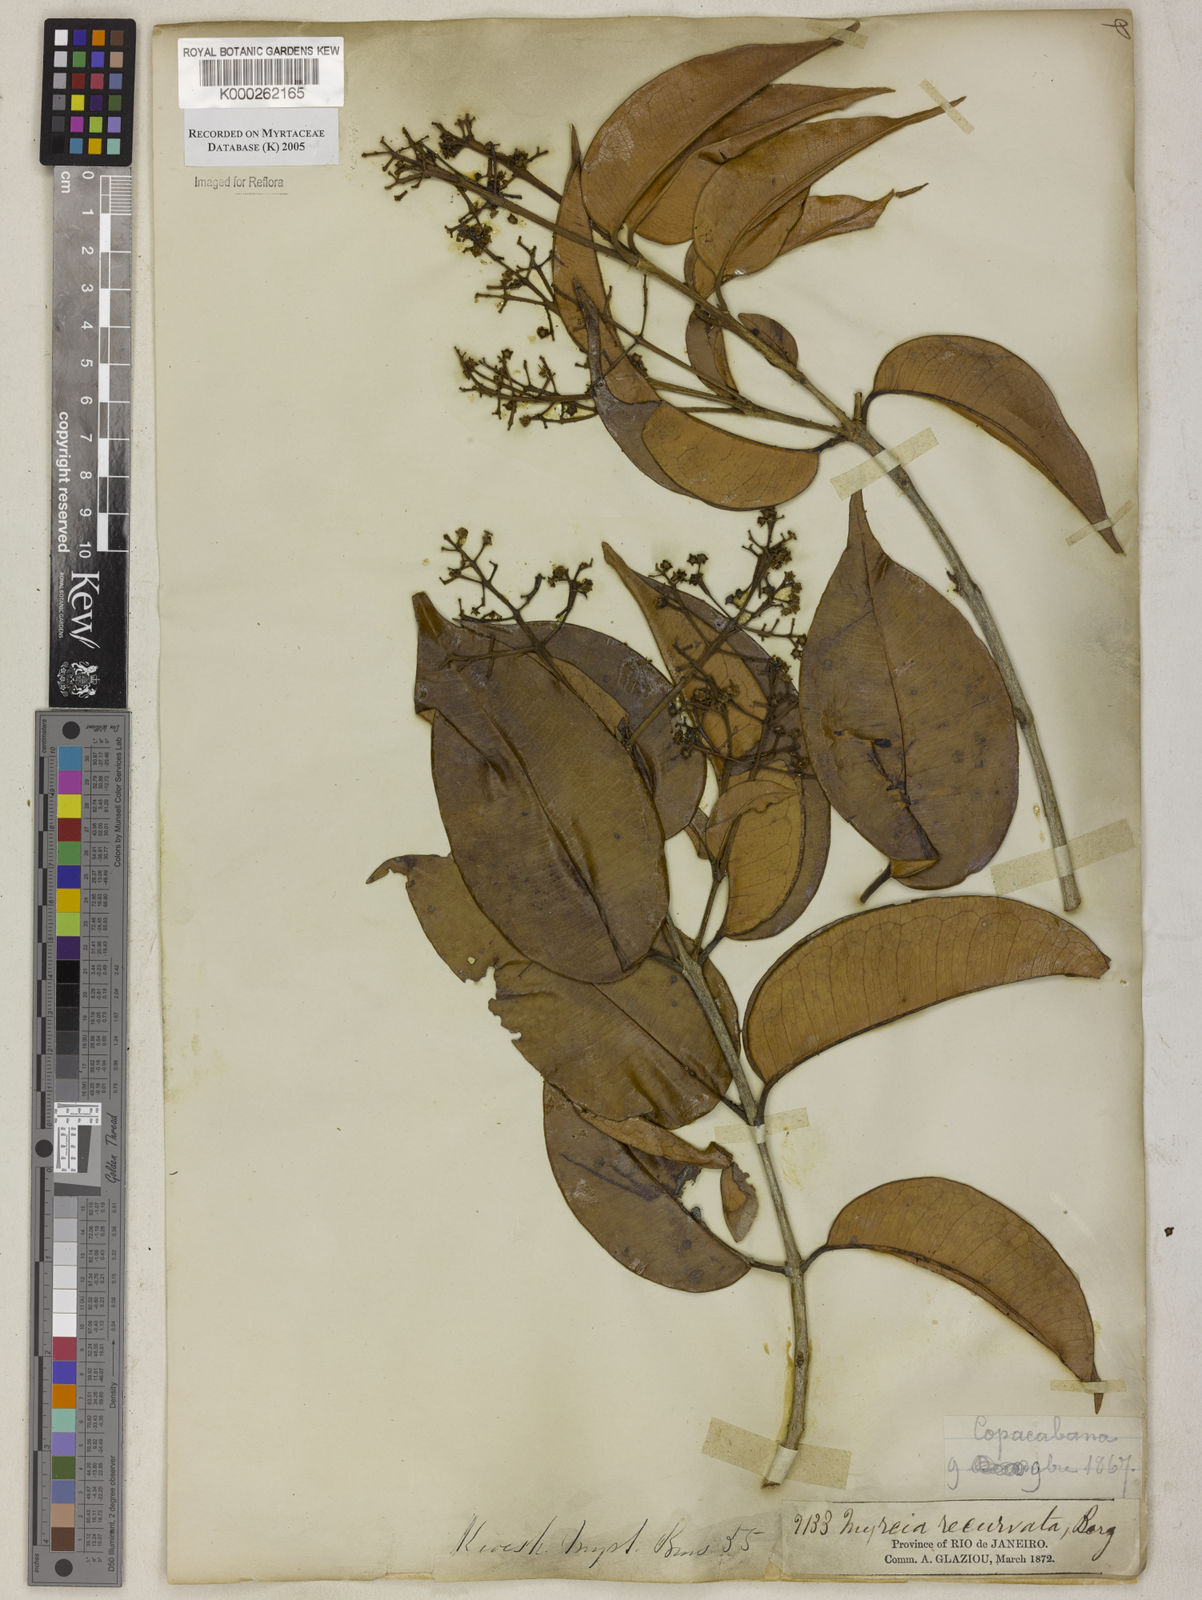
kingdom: Plantae
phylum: Tracheophyta
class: Magnoliopsida
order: Myrtales
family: Myrtaceae
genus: Myrcia
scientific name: Myrcia recurvata
